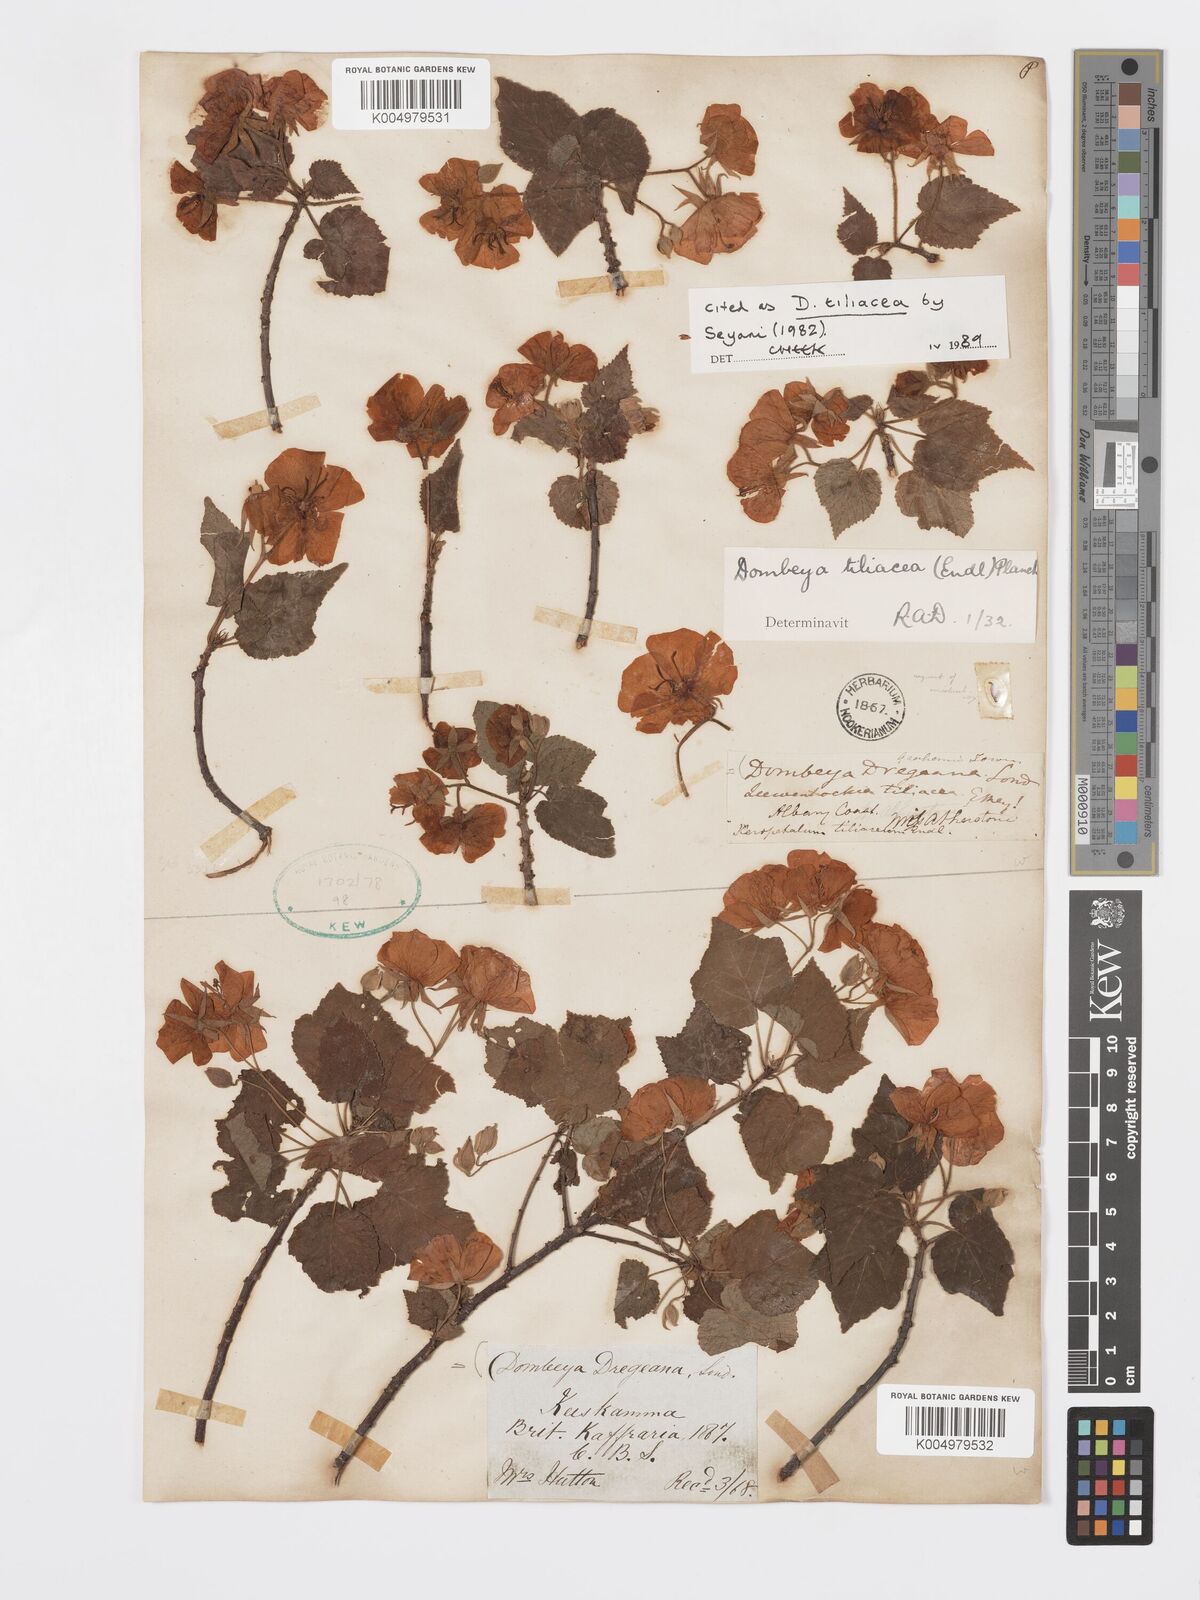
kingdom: Plantae
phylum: Tracheophyta
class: Magnoliopsida
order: Malvales
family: Malvaceae
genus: Dombeya
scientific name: Dombeya tiliacea
